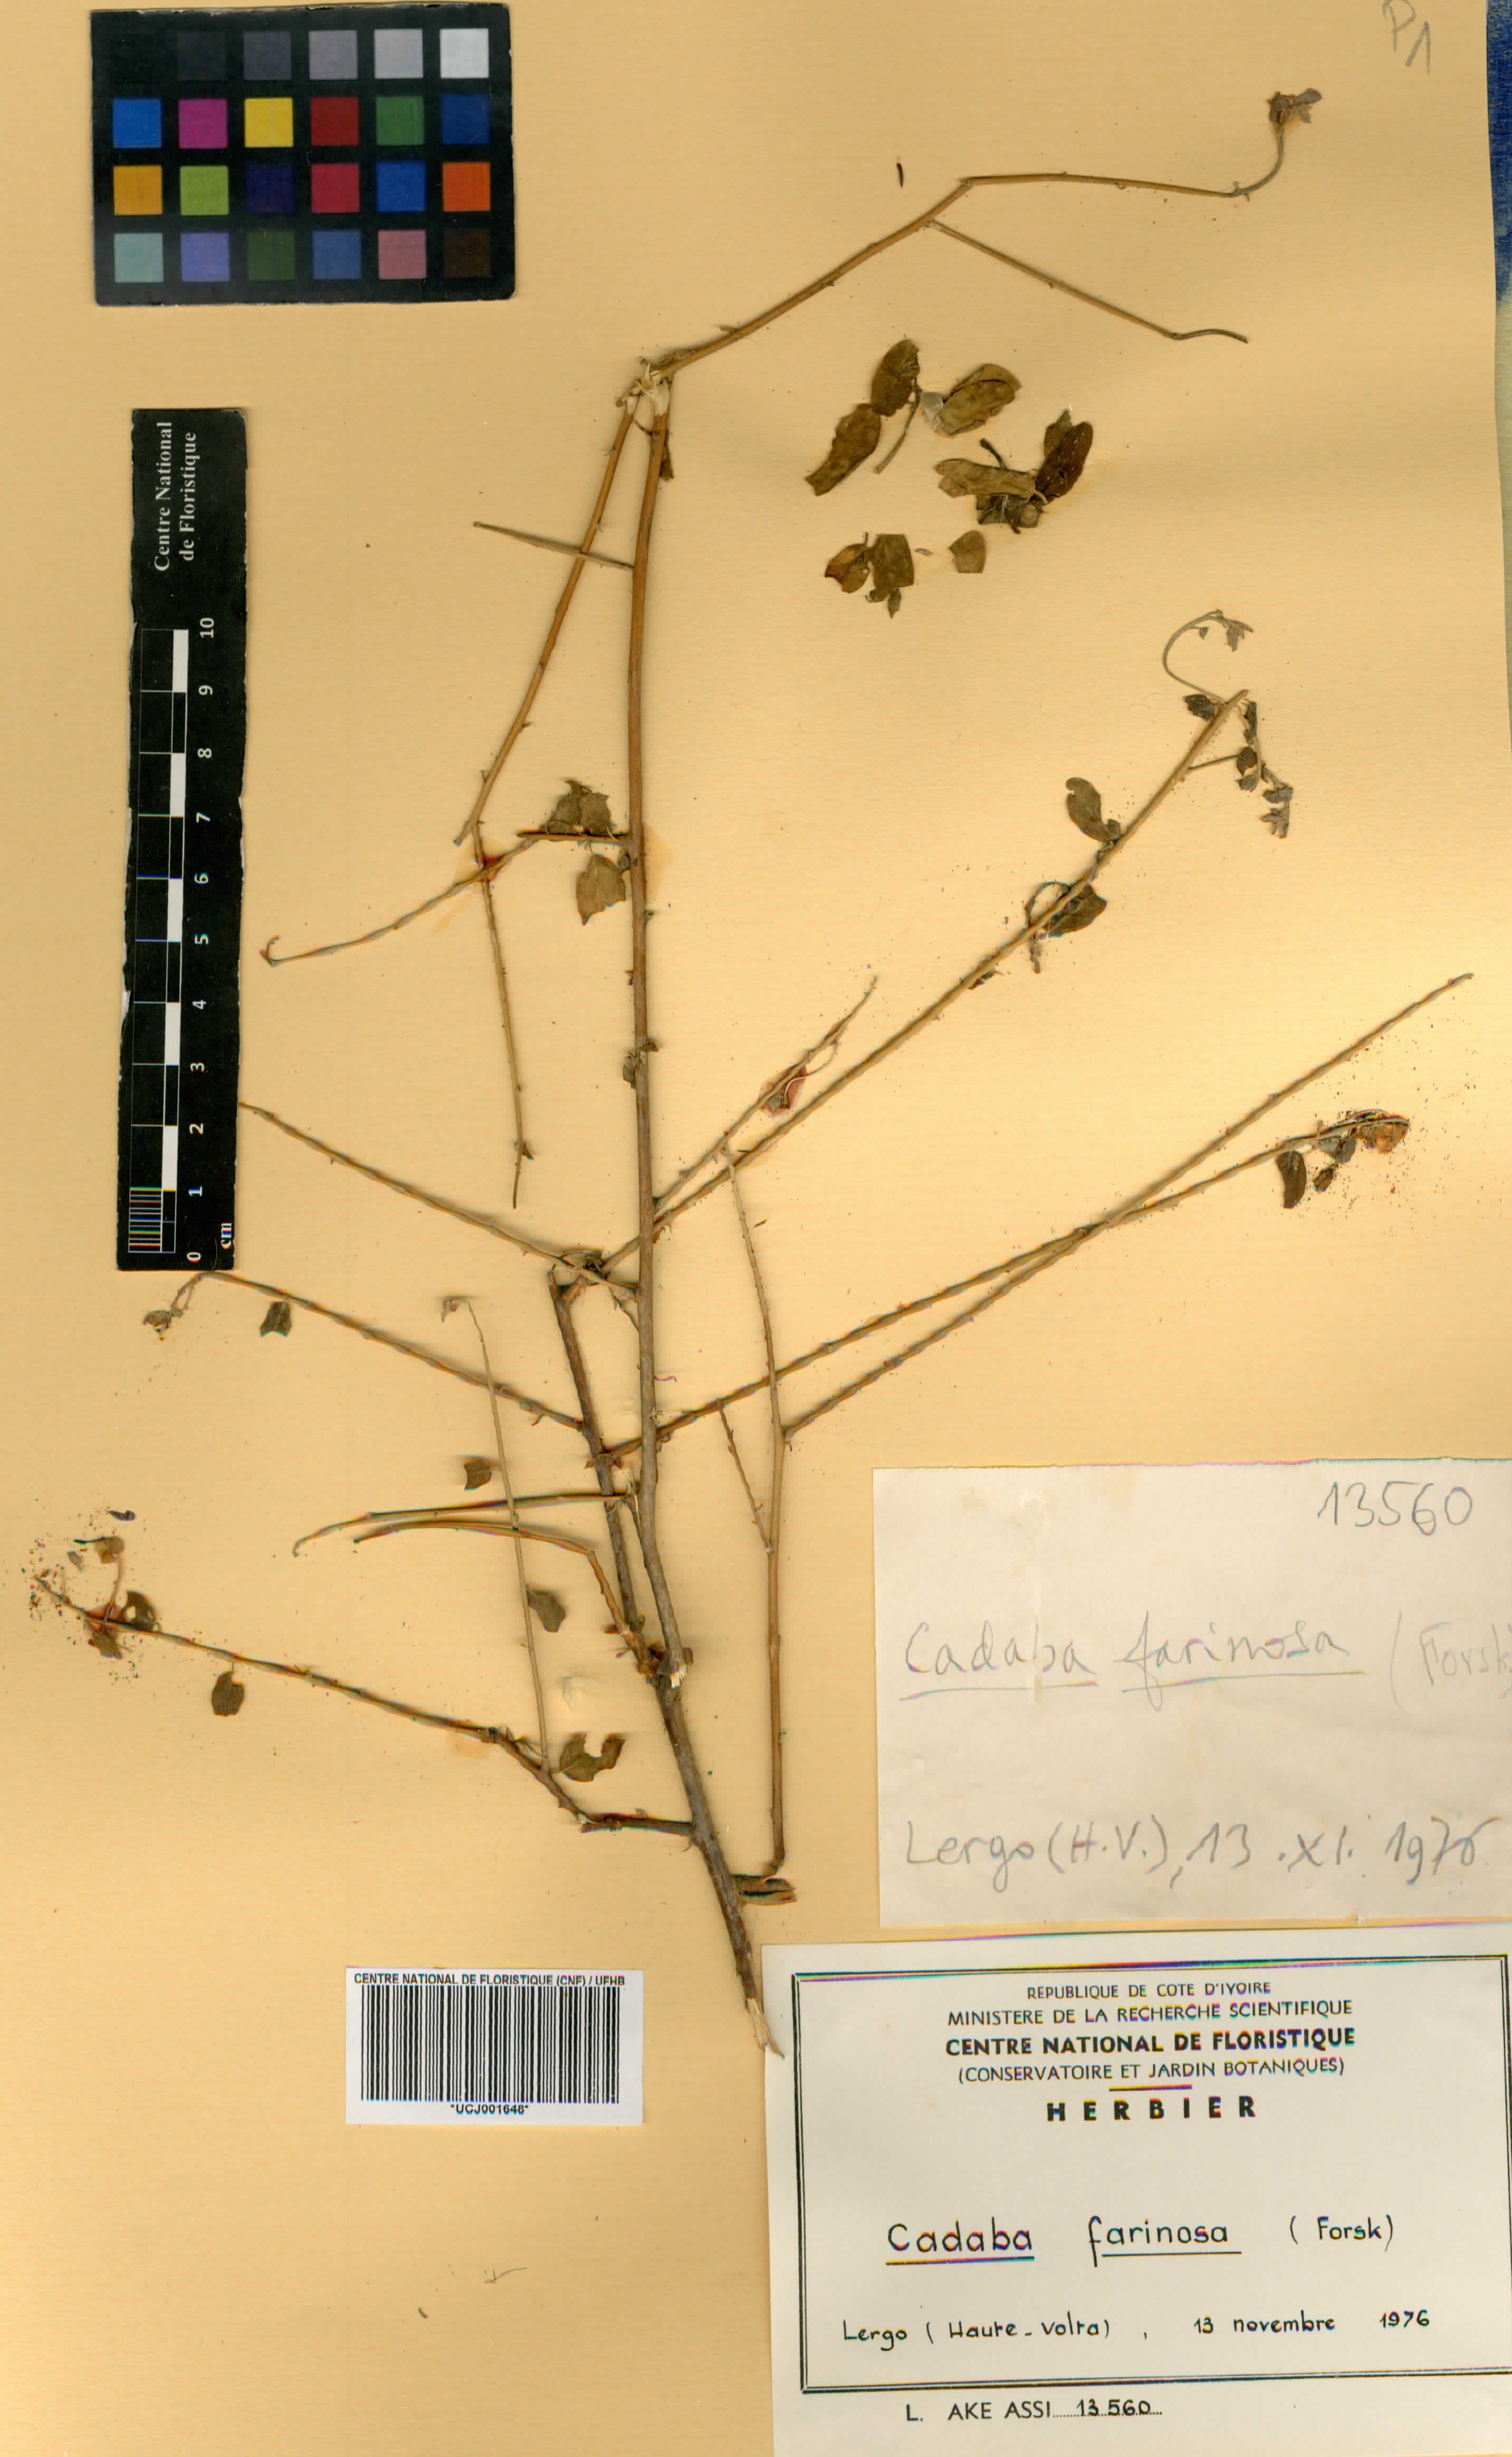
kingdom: Plantae
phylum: Tracheophyta
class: Magnoliopsida
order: Brassicales
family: Capparaceae
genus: Cadaba
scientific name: Cadaba farinosa
